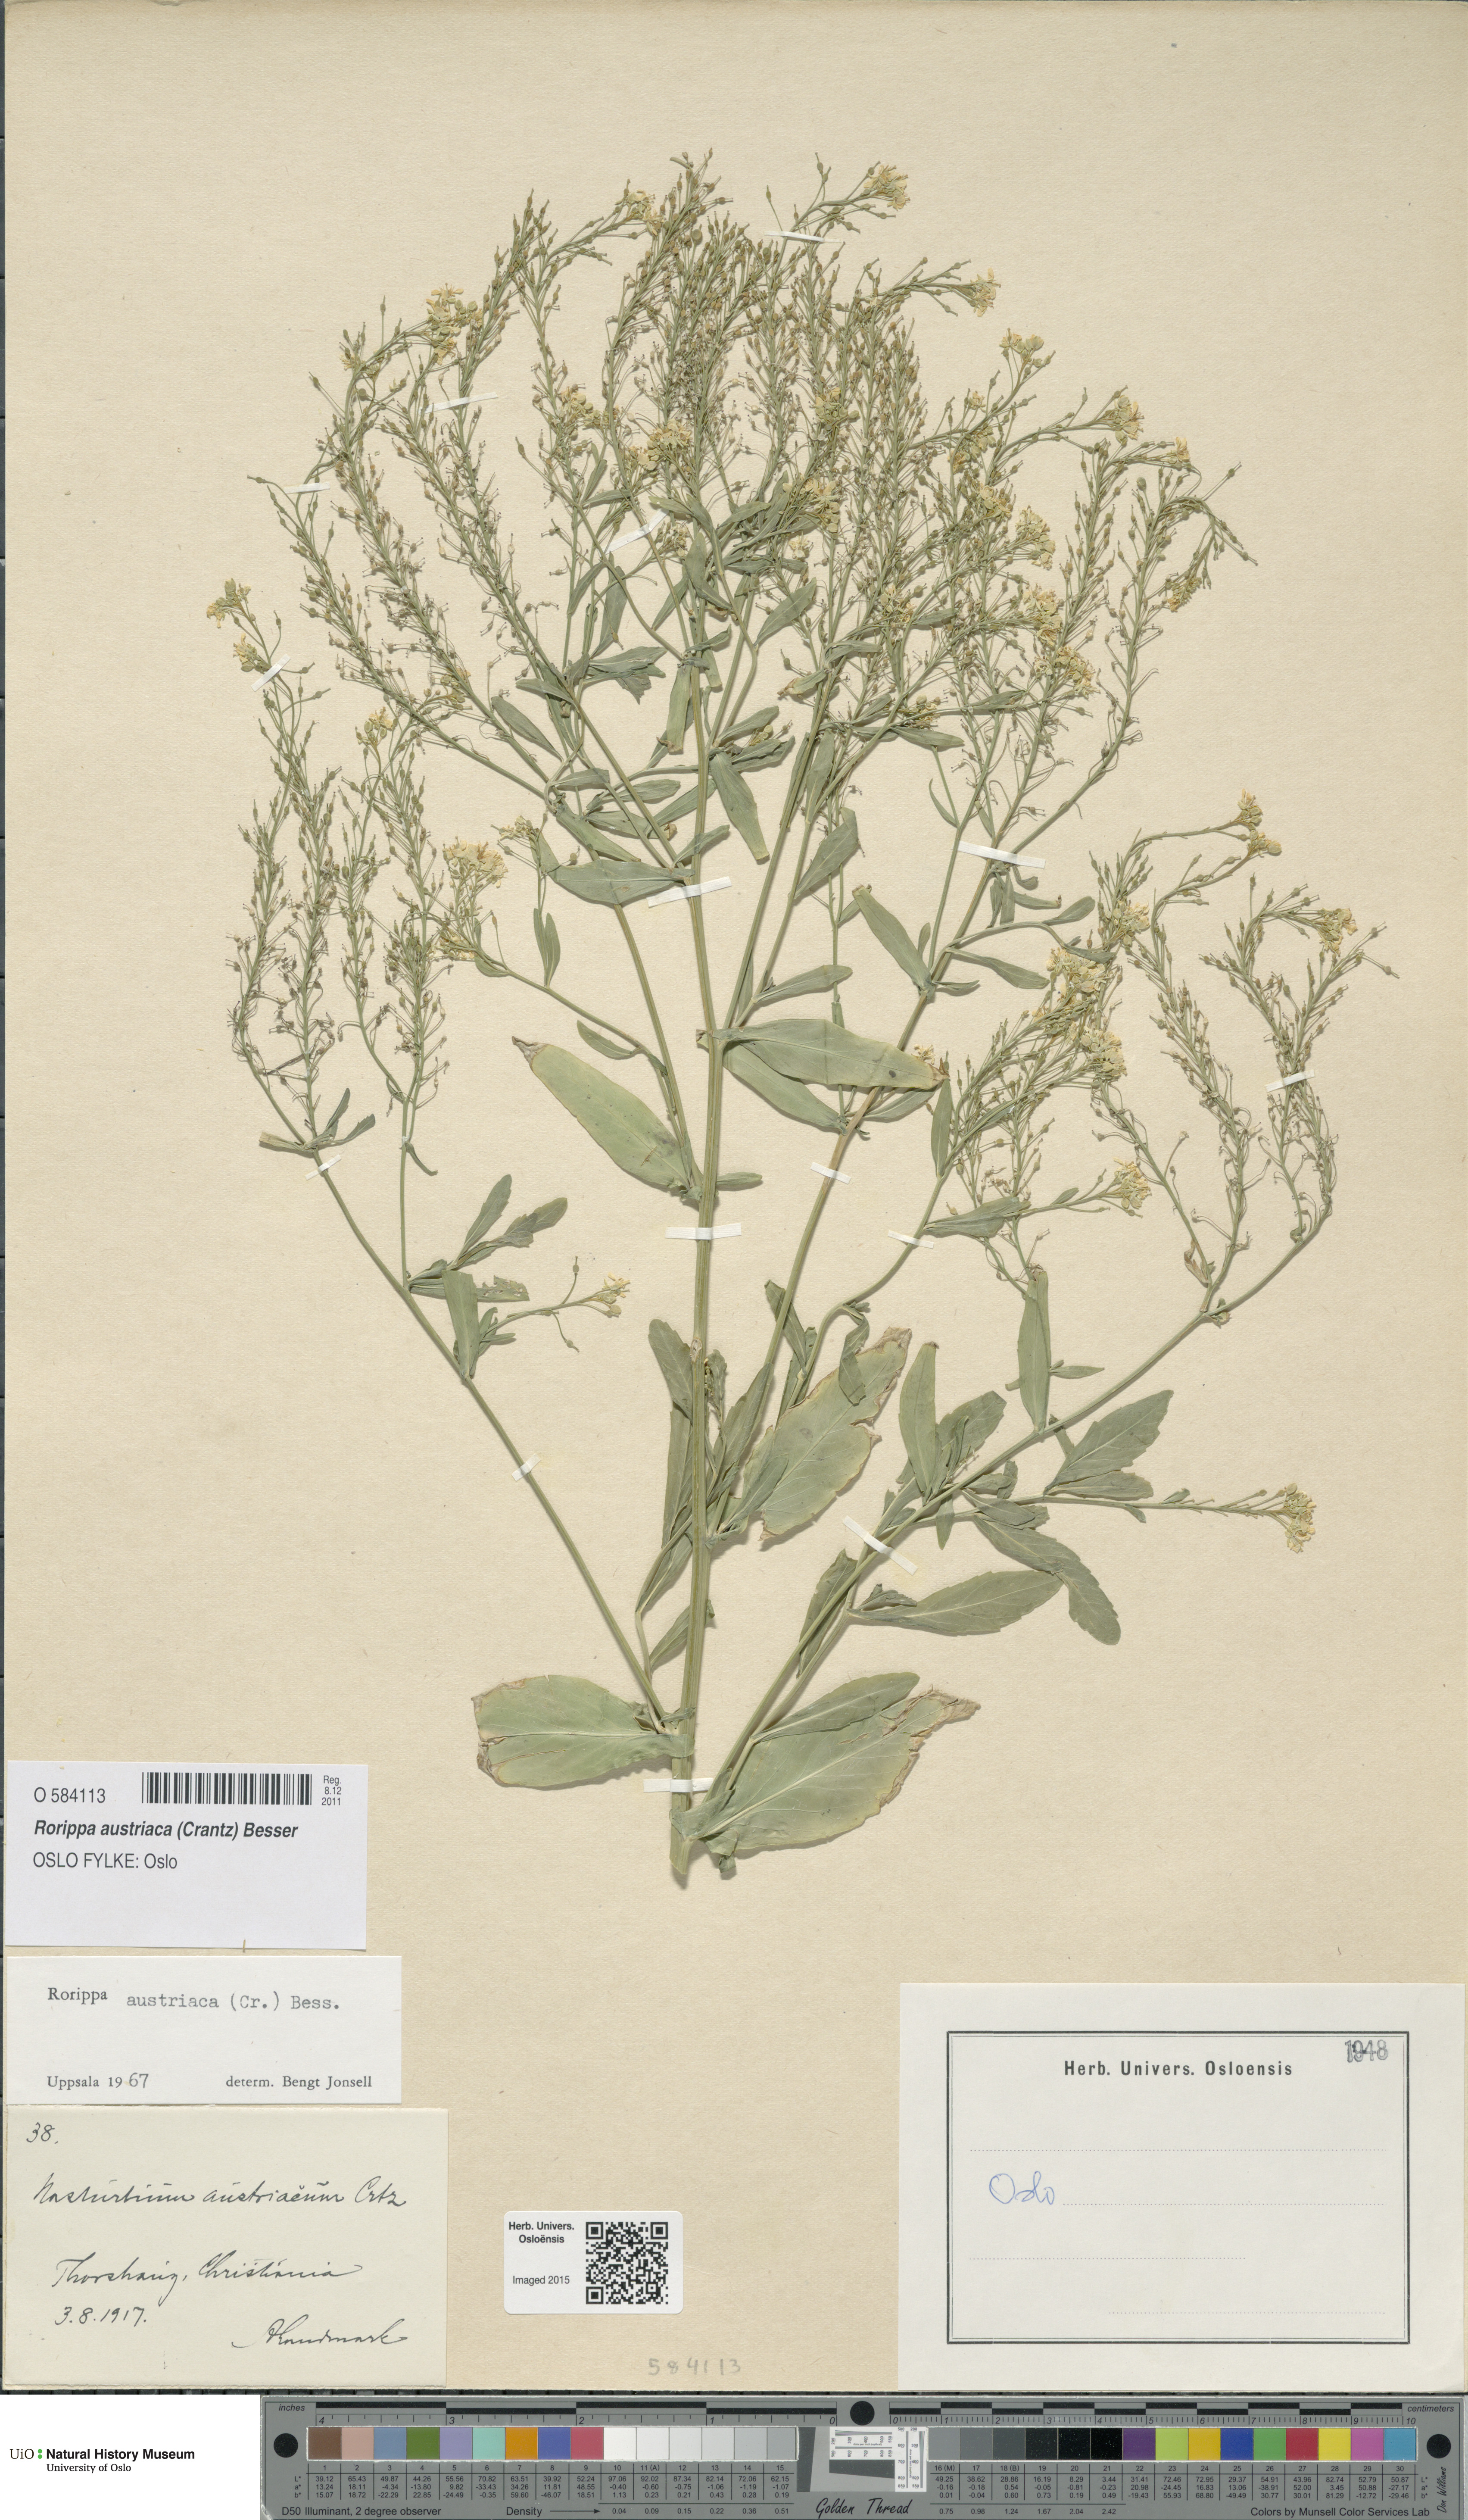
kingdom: Plantae
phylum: Tracheophyta
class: Magnoliopsida
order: Brassicales
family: Brassicaceae
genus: Rorippa
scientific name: Rorippa austriaca
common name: Austrian yellow-cress
